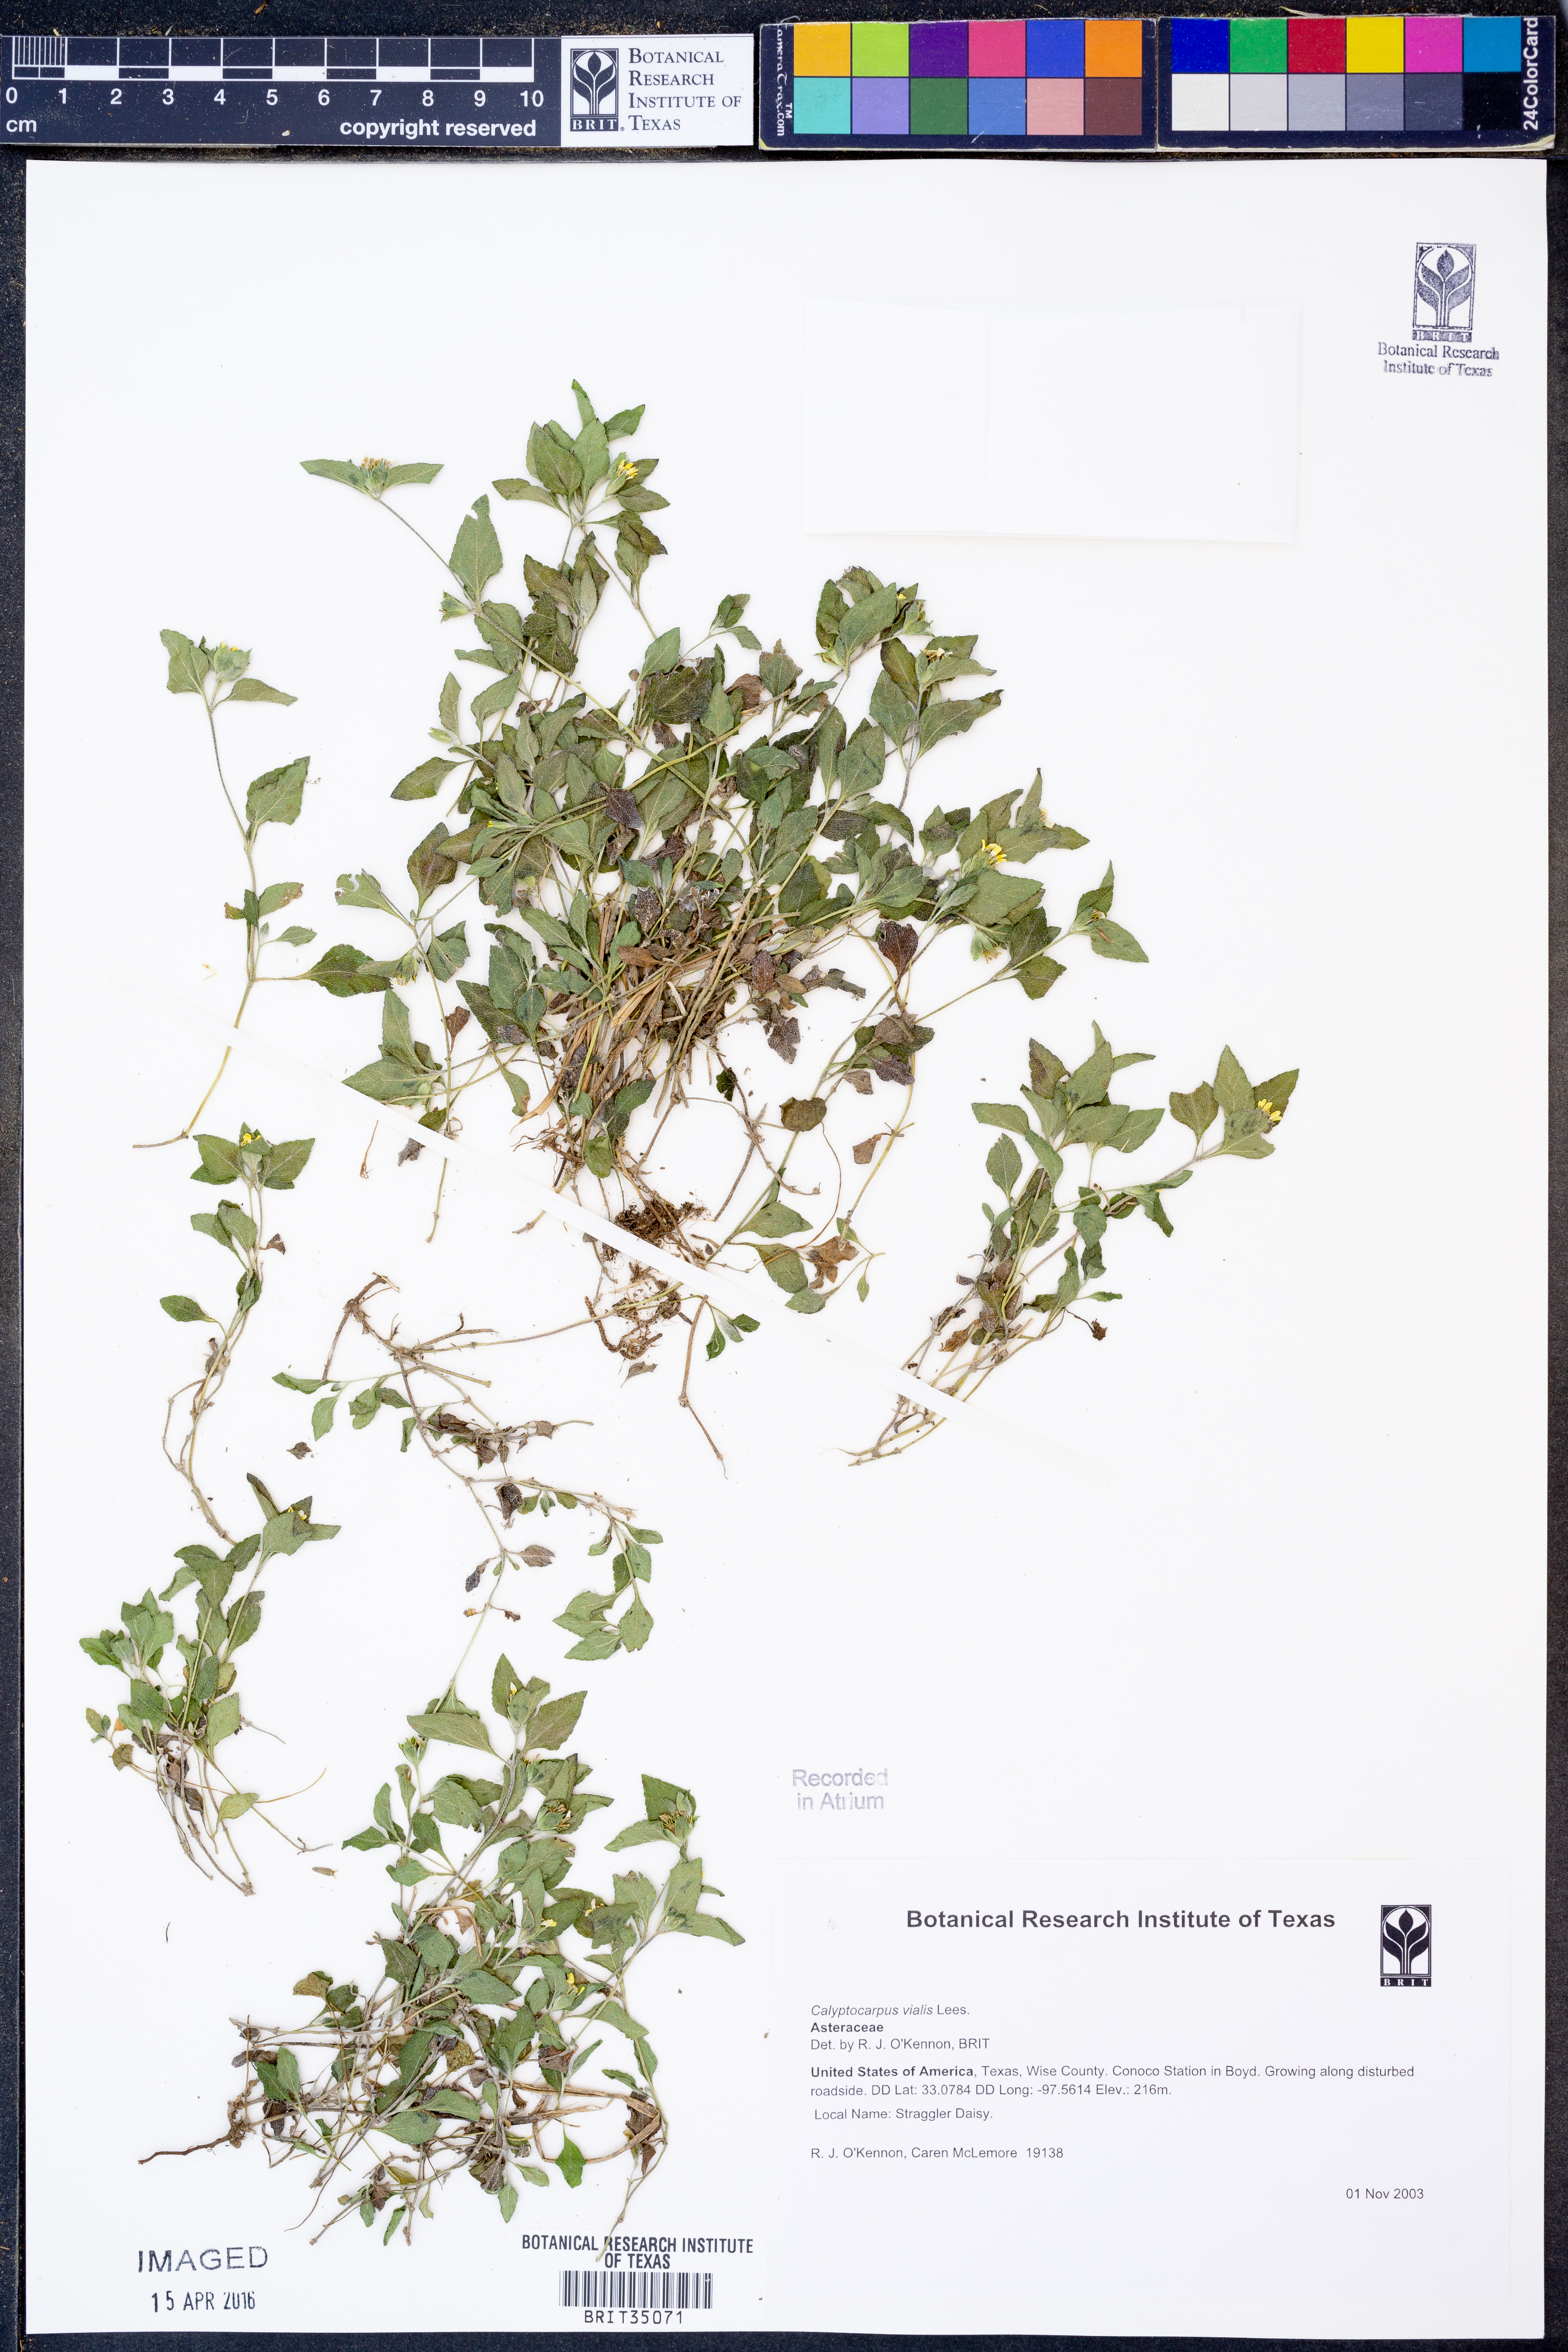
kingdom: Plantae
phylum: Tracheophyta
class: Magnoliopsida
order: Asterales
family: Asteraceae
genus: Calyptocarpus
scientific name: Calyptocarpus vialis
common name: Straggler daisy
